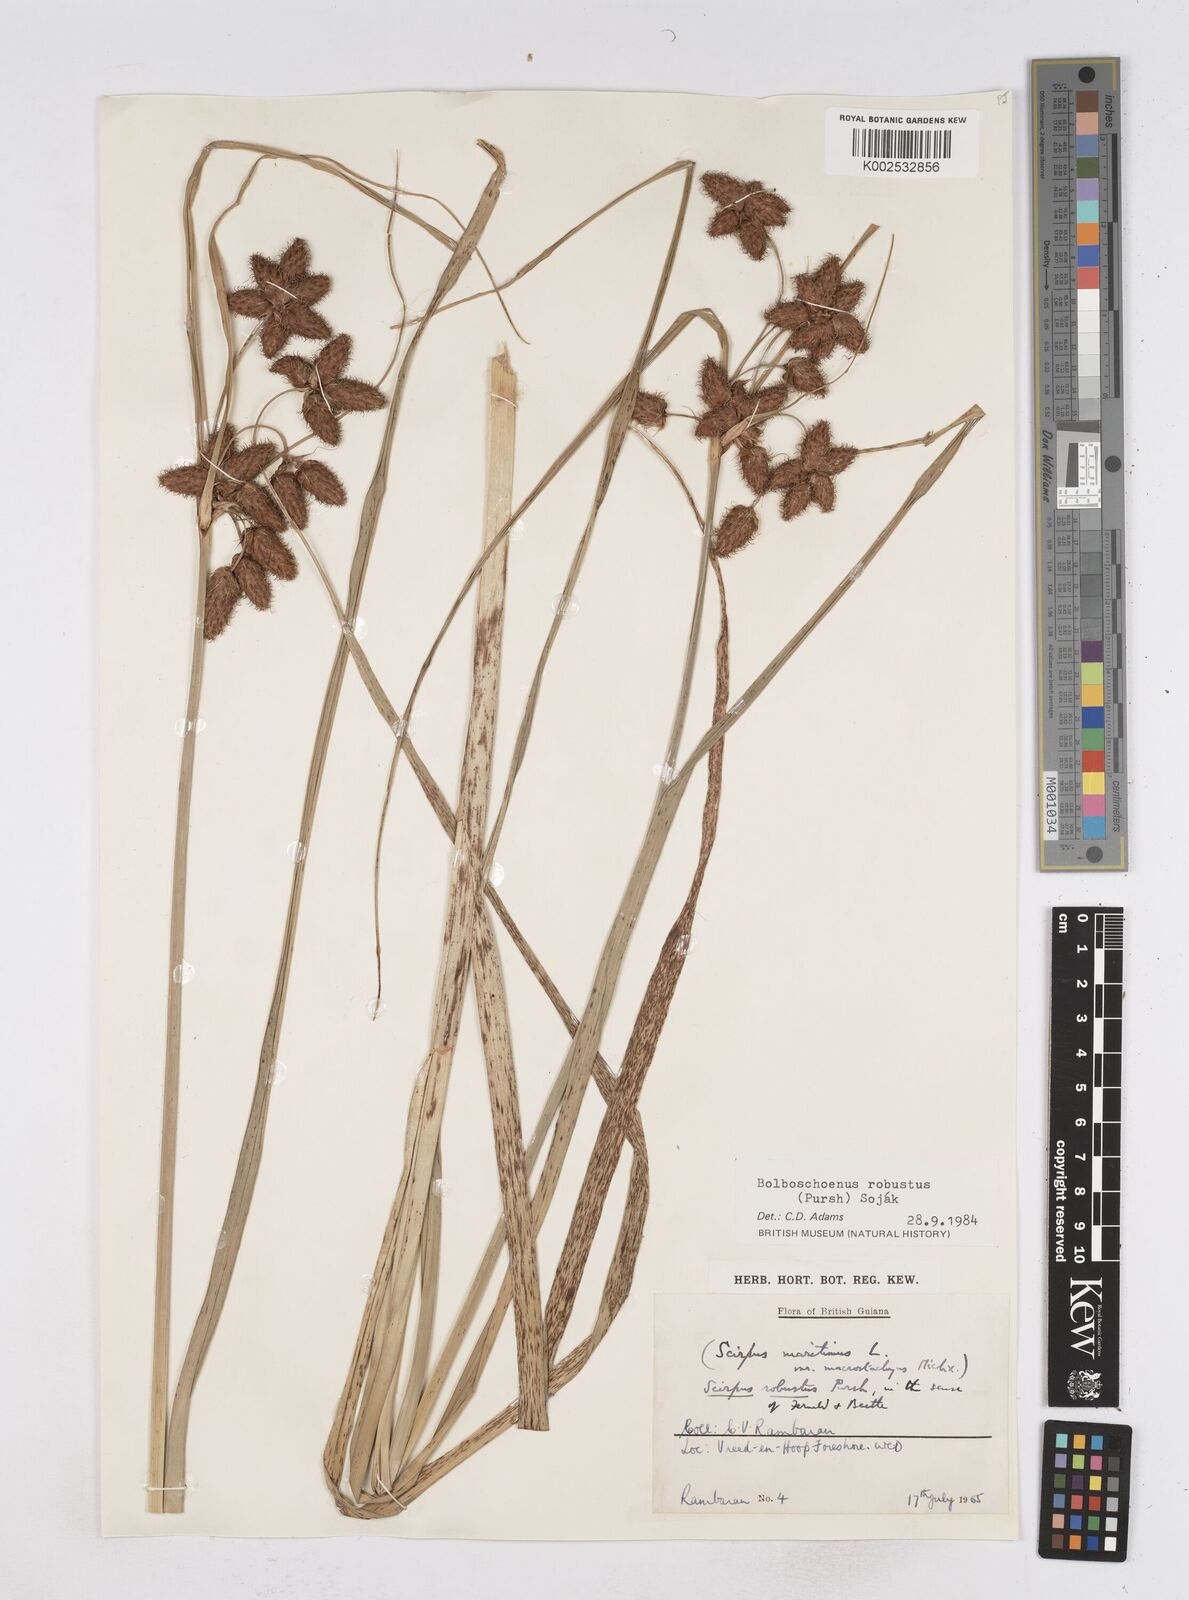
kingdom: Plantae
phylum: Tracheophyta
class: Liliopsida
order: Poales
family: Cyperaceae
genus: Bolboschoenus
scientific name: Bolboschoenus robustus
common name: Seacoast bulrush
